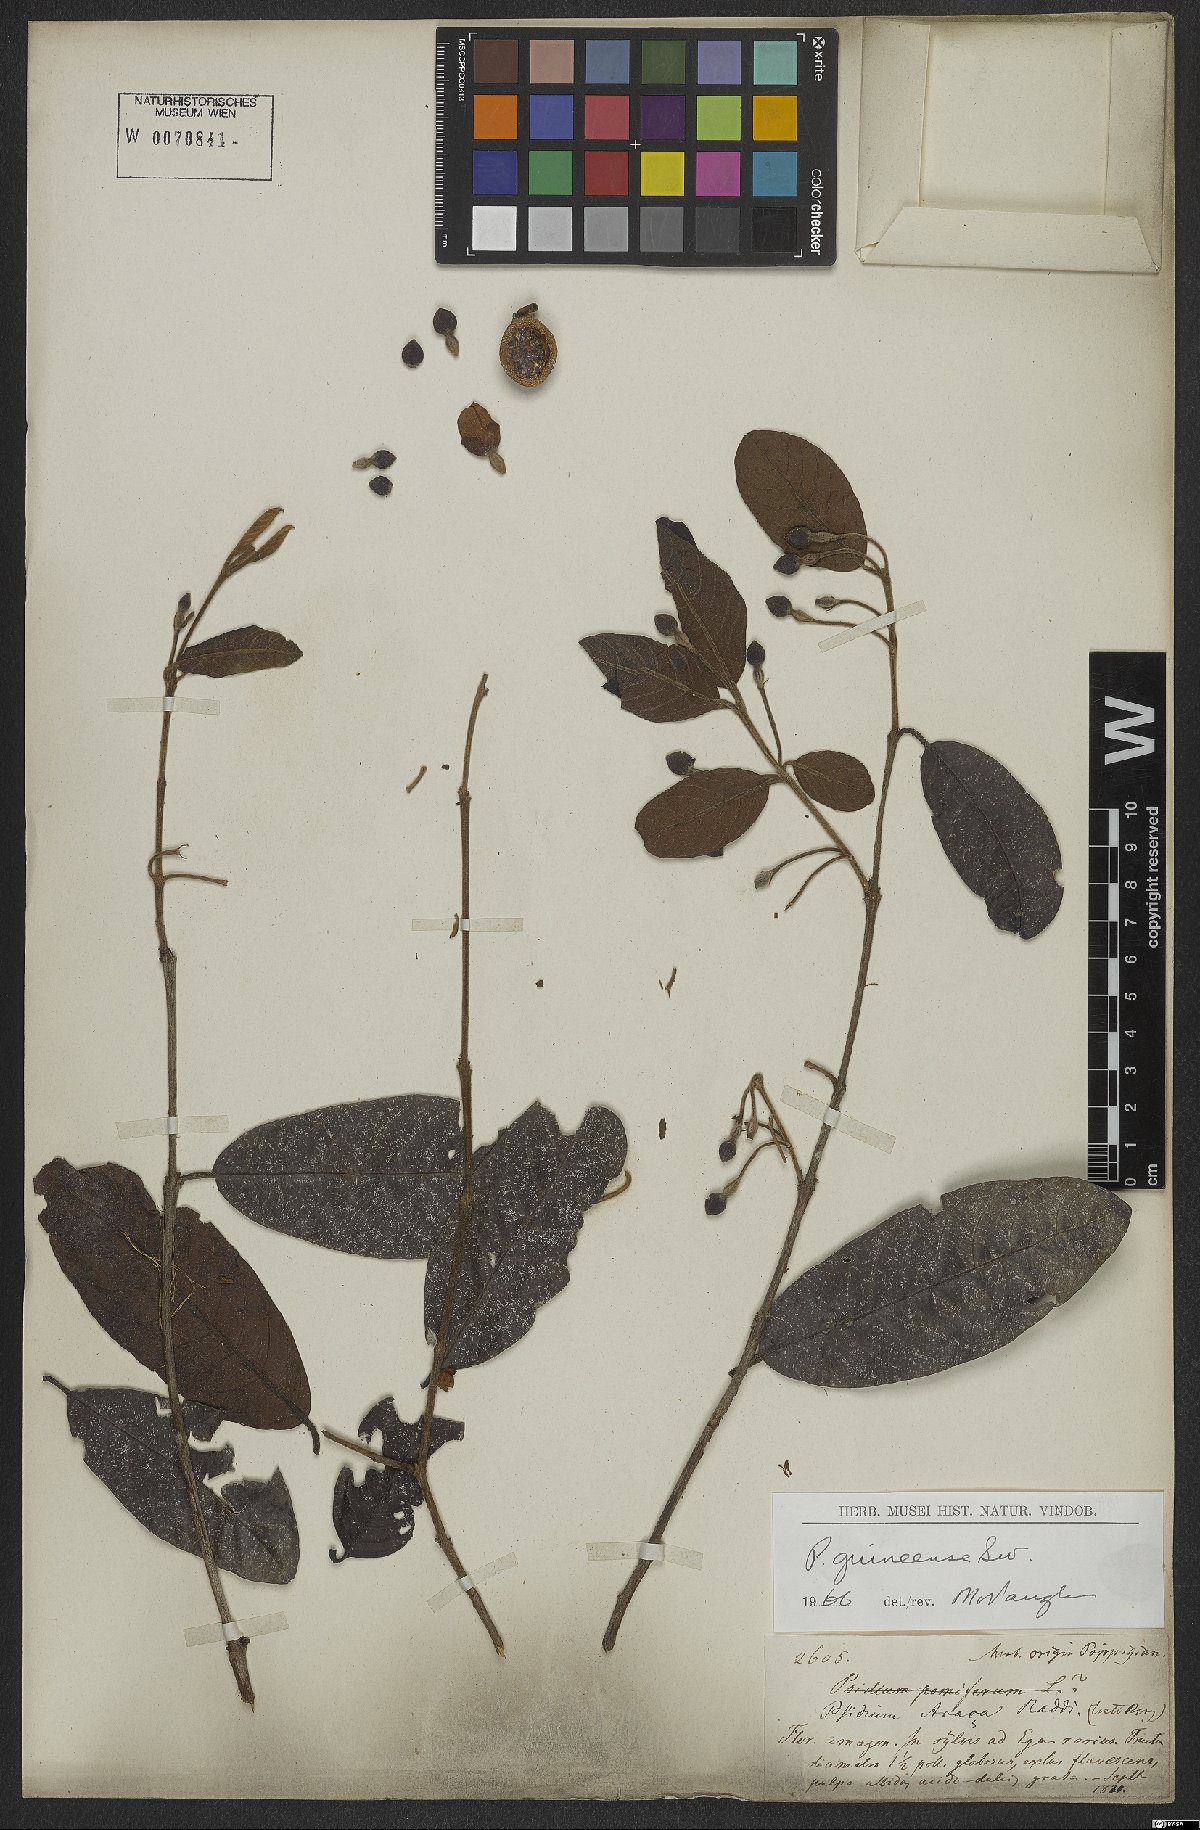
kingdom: Plantae
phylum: Tracheophyta
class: Magnoliopsida
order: Myrtales
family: Myrtaceae
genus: Psidium
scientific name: Psidium guineense
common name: Brazilian guava
